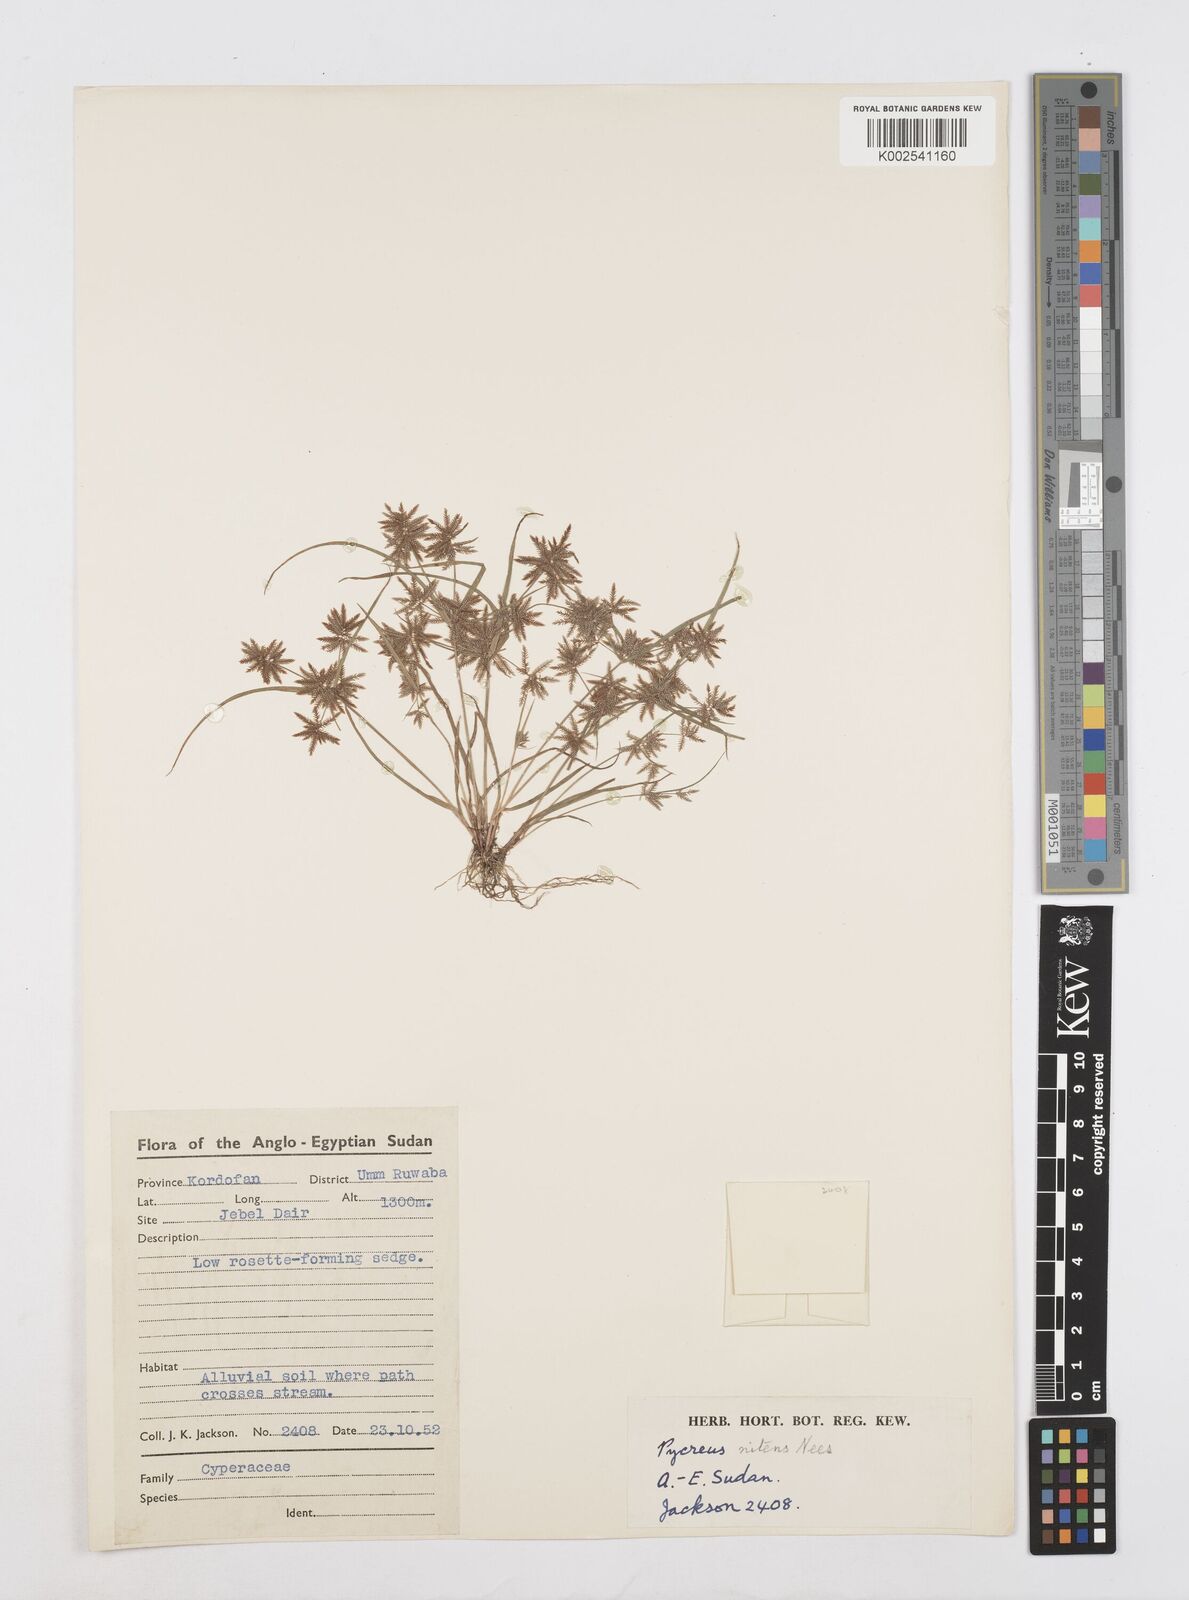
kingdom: Plantae
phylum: Tracheophyta
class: Liliopsida
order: Poales
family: Cyperaceae
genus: Cyperus
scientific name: Cyperus pumilus
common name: Low flatsedge
